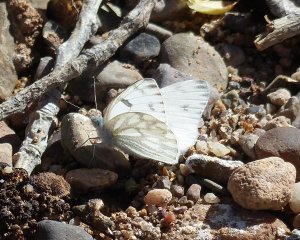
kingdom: Animalia
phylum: Arthropoda
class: Insecta
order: Lepidoptera
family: Pieridae
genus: Pontia
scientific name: Pontia protodice
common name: Checkered White
